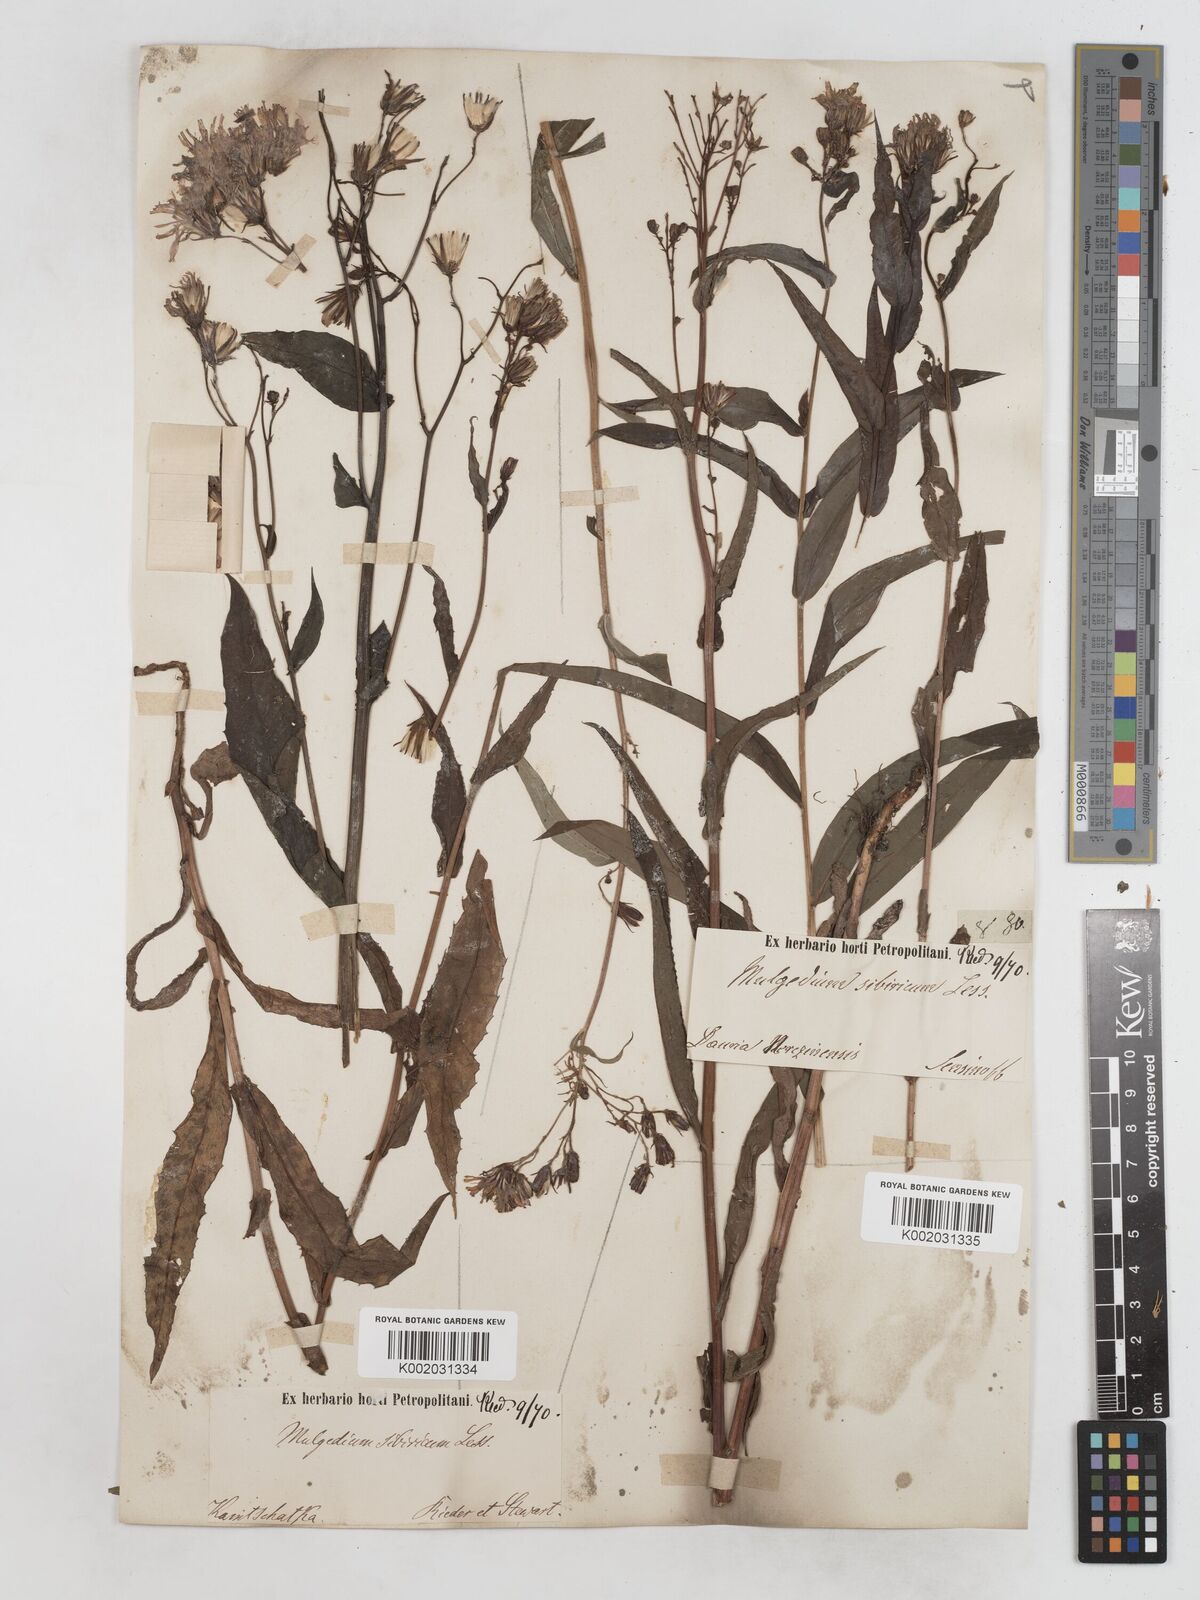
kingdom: Plantae
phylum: Tracheophyta
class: Magnoliopsida
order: Asterales
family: Asteraceae
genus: Lactuca
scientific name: Lactuca sibirica
